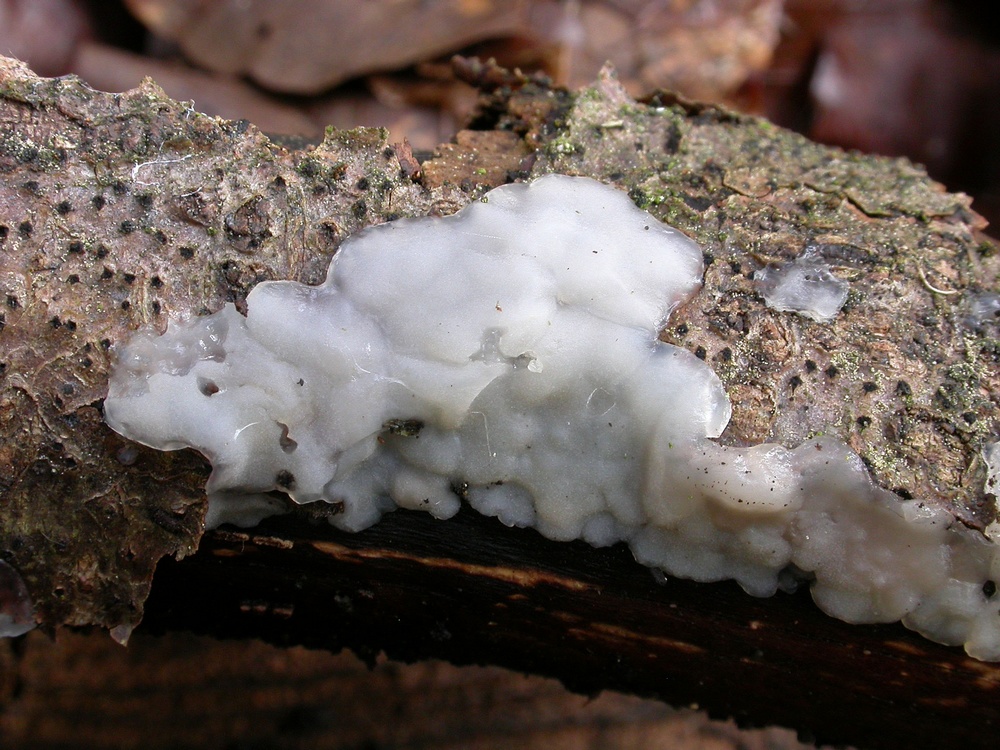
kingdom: Fungi
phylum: Basidiomycota
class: Agaricomycetes
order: Auriculariales
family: Auriculariaceae
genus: Exidia
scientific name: Exidia thuretiana
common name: hvidlig bævretop
